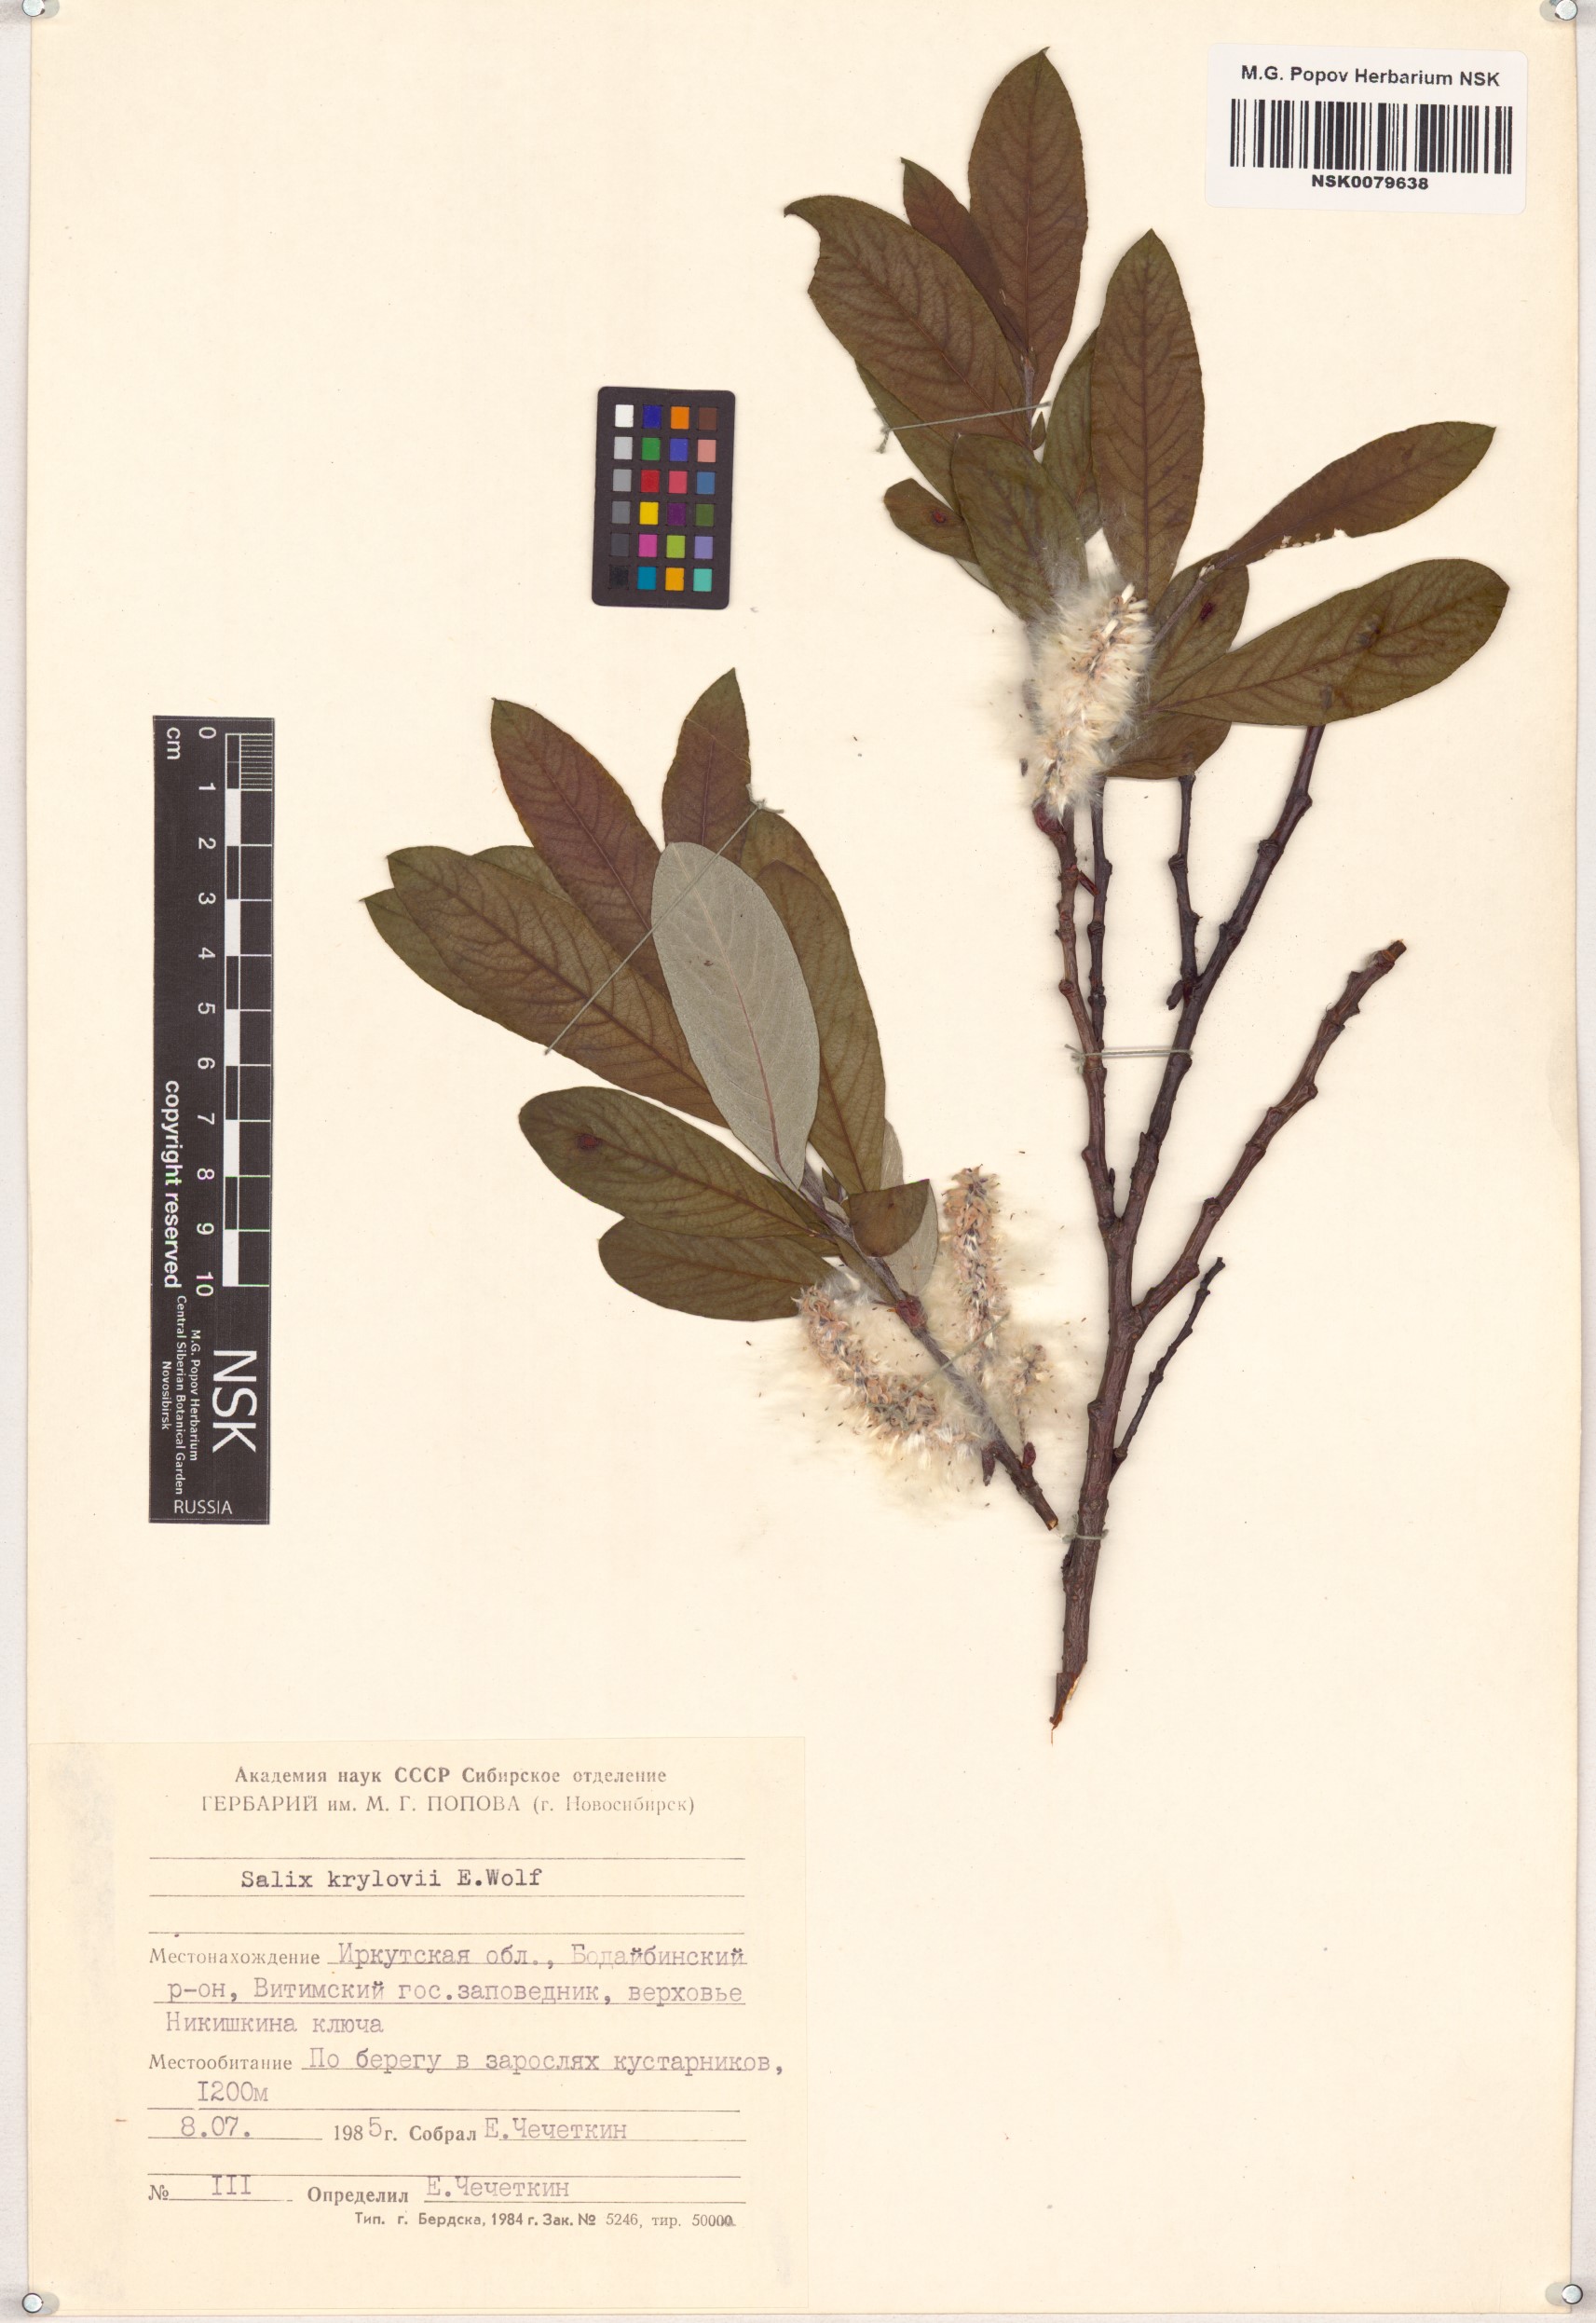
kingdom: Plantae
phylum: Tracheophyta
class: Magnoliopsida
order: Malpighiales
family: Salicaceae
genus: Salix
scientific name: Salix krylovii
